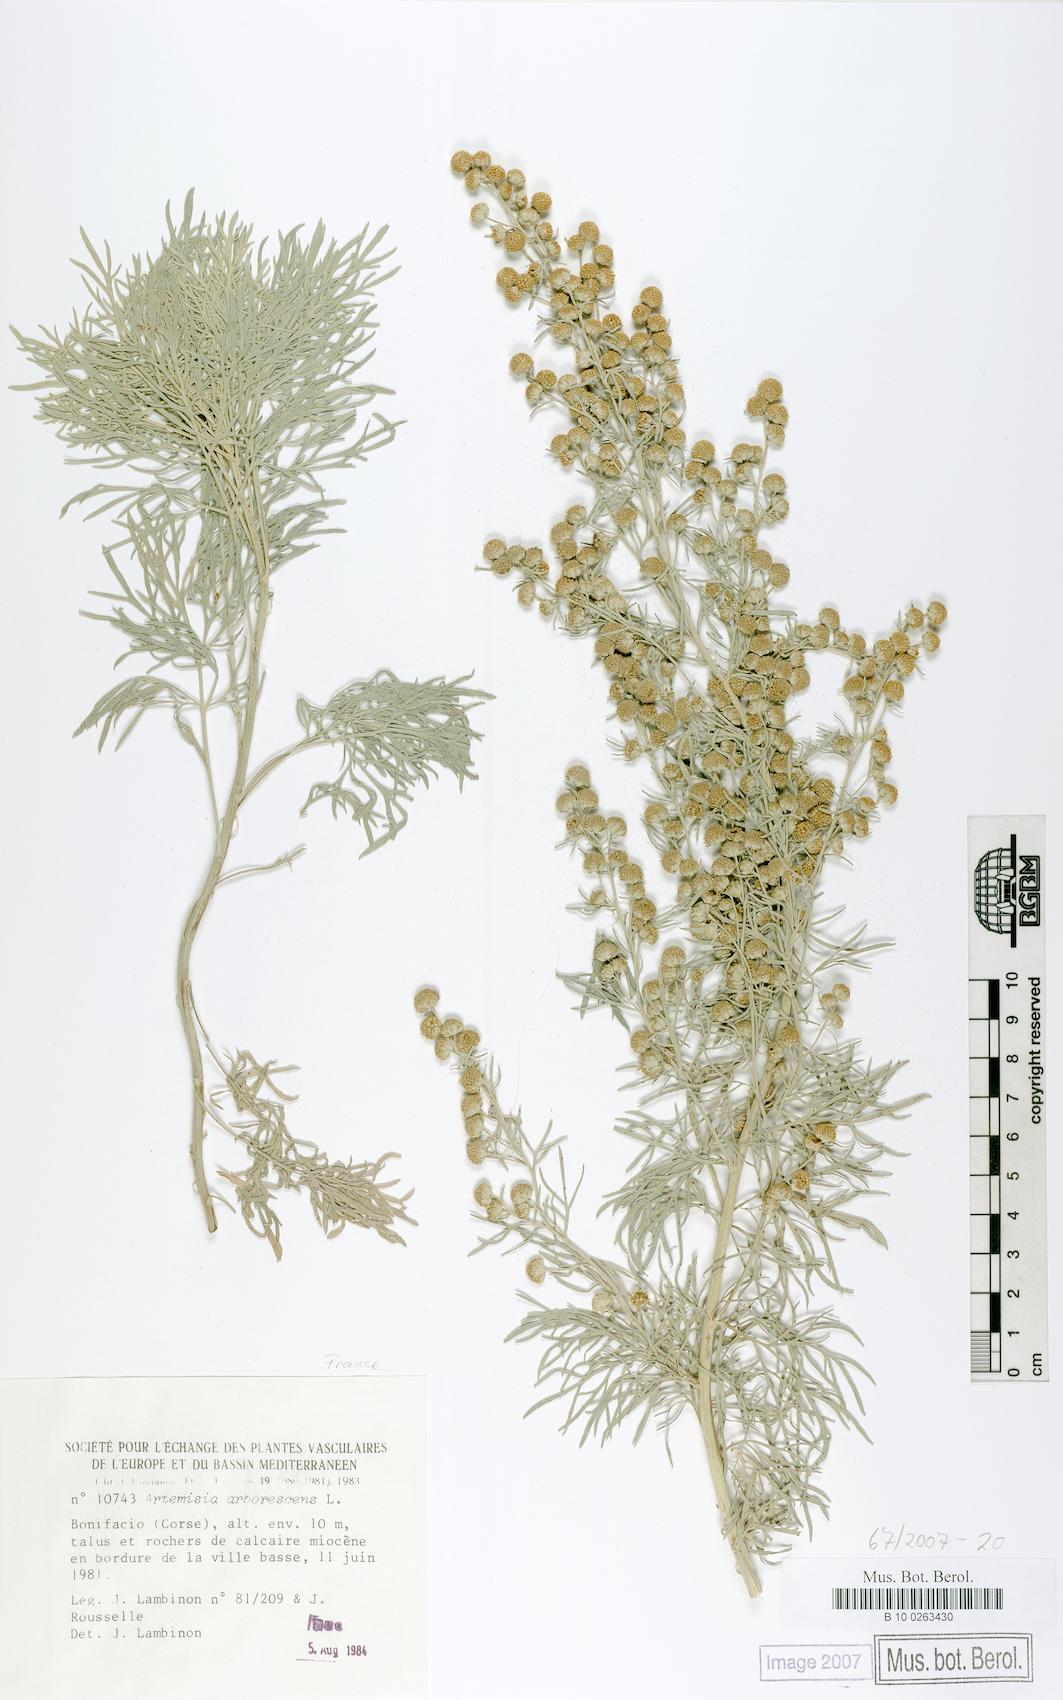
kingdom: Plantae
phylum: Tracheophyta
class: Magnoliopsida
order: Asterales
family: Asteraceae
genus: Artemisia
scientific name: Artemisia arborescens
